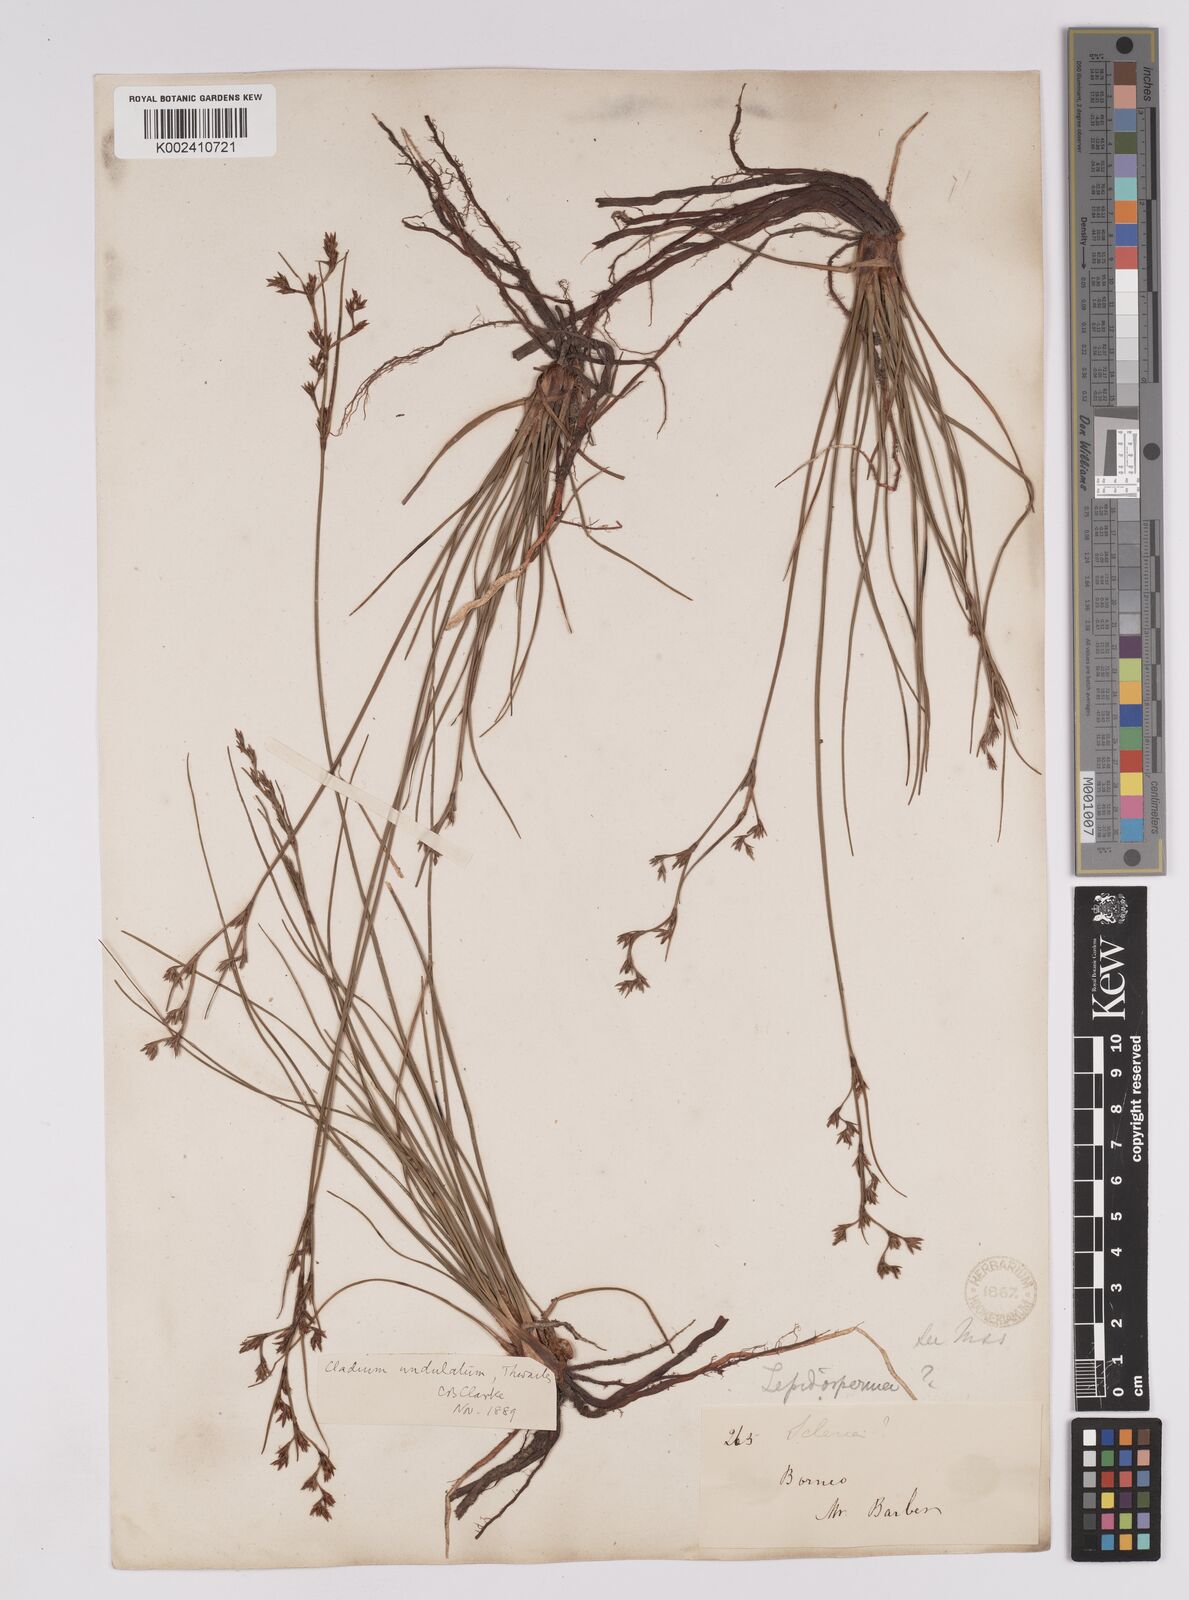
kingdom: Plantae
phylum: Tracheophyta
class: Liliopsida
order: Poales
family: Cyperaceae
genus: Anthelepis
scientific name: Anthelepis undulata
